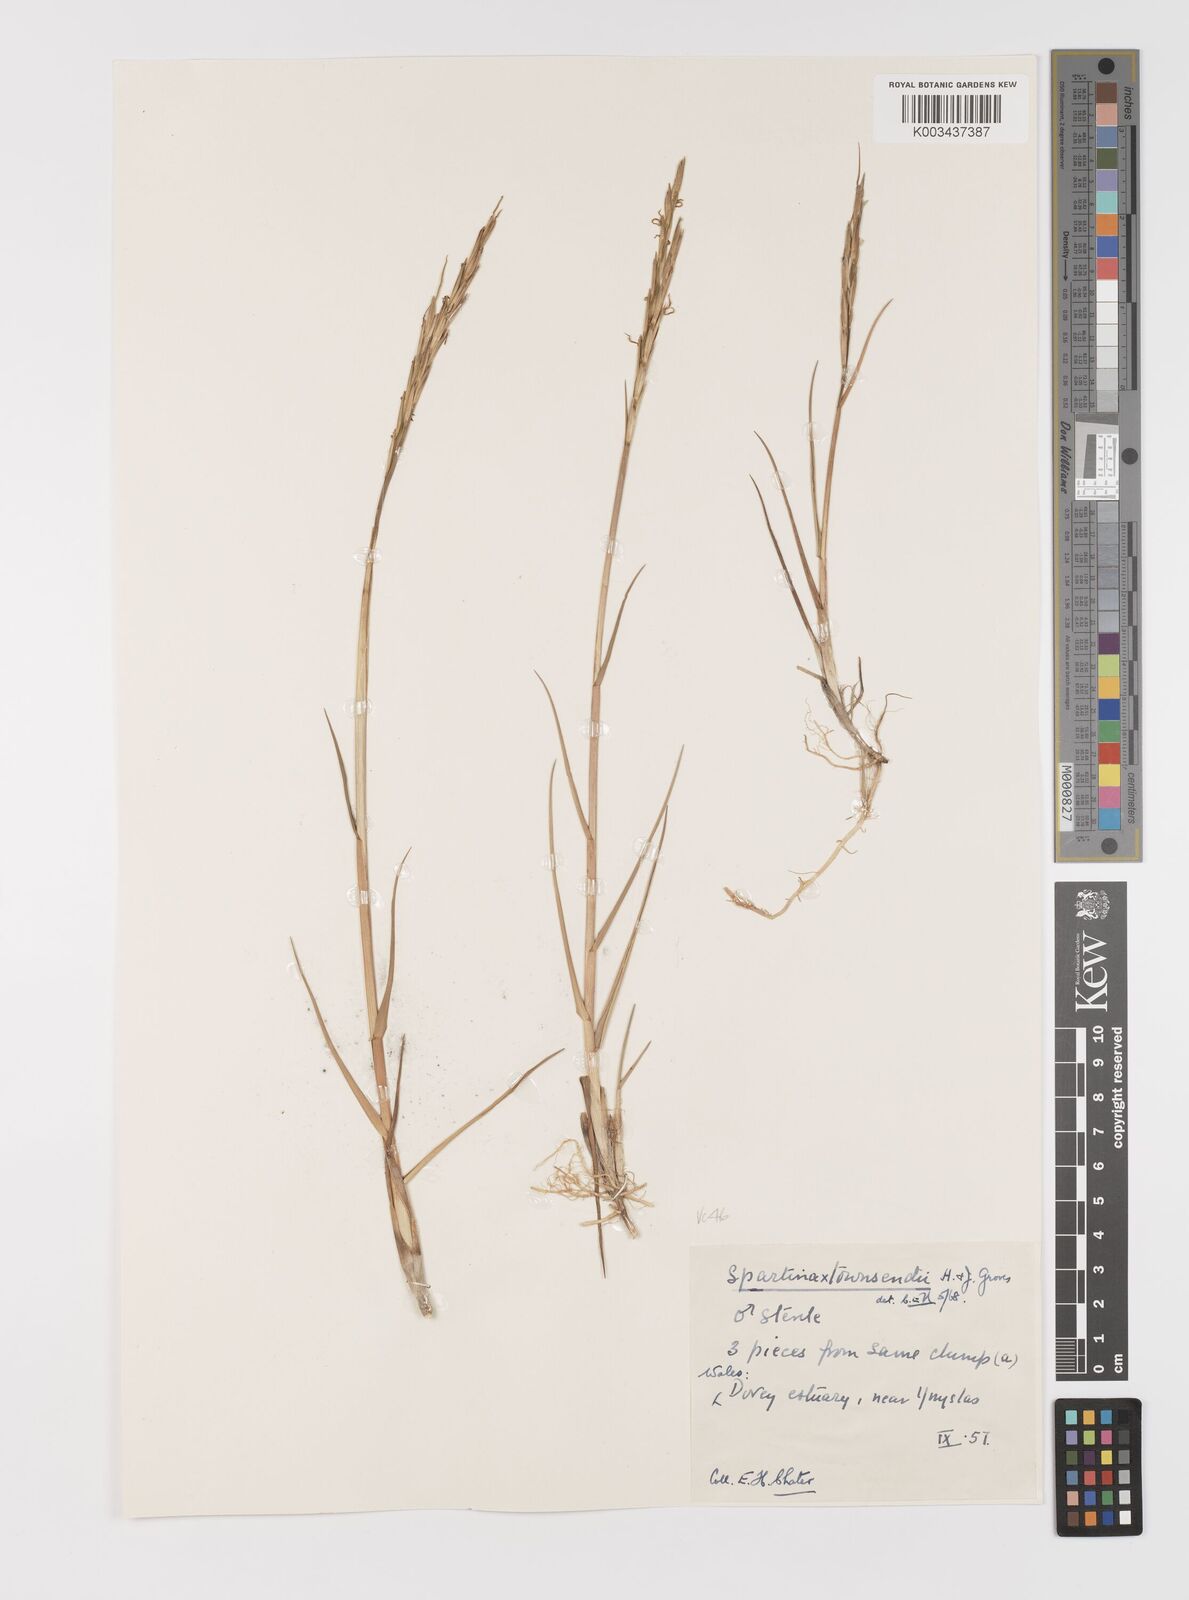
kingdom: Plantae
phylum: Tracheophyta
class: Liliopsida
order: Poales
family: Poaceae
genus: Sporobolus
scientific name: Sporobolus townsendii
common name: Townsend's cordgrass
